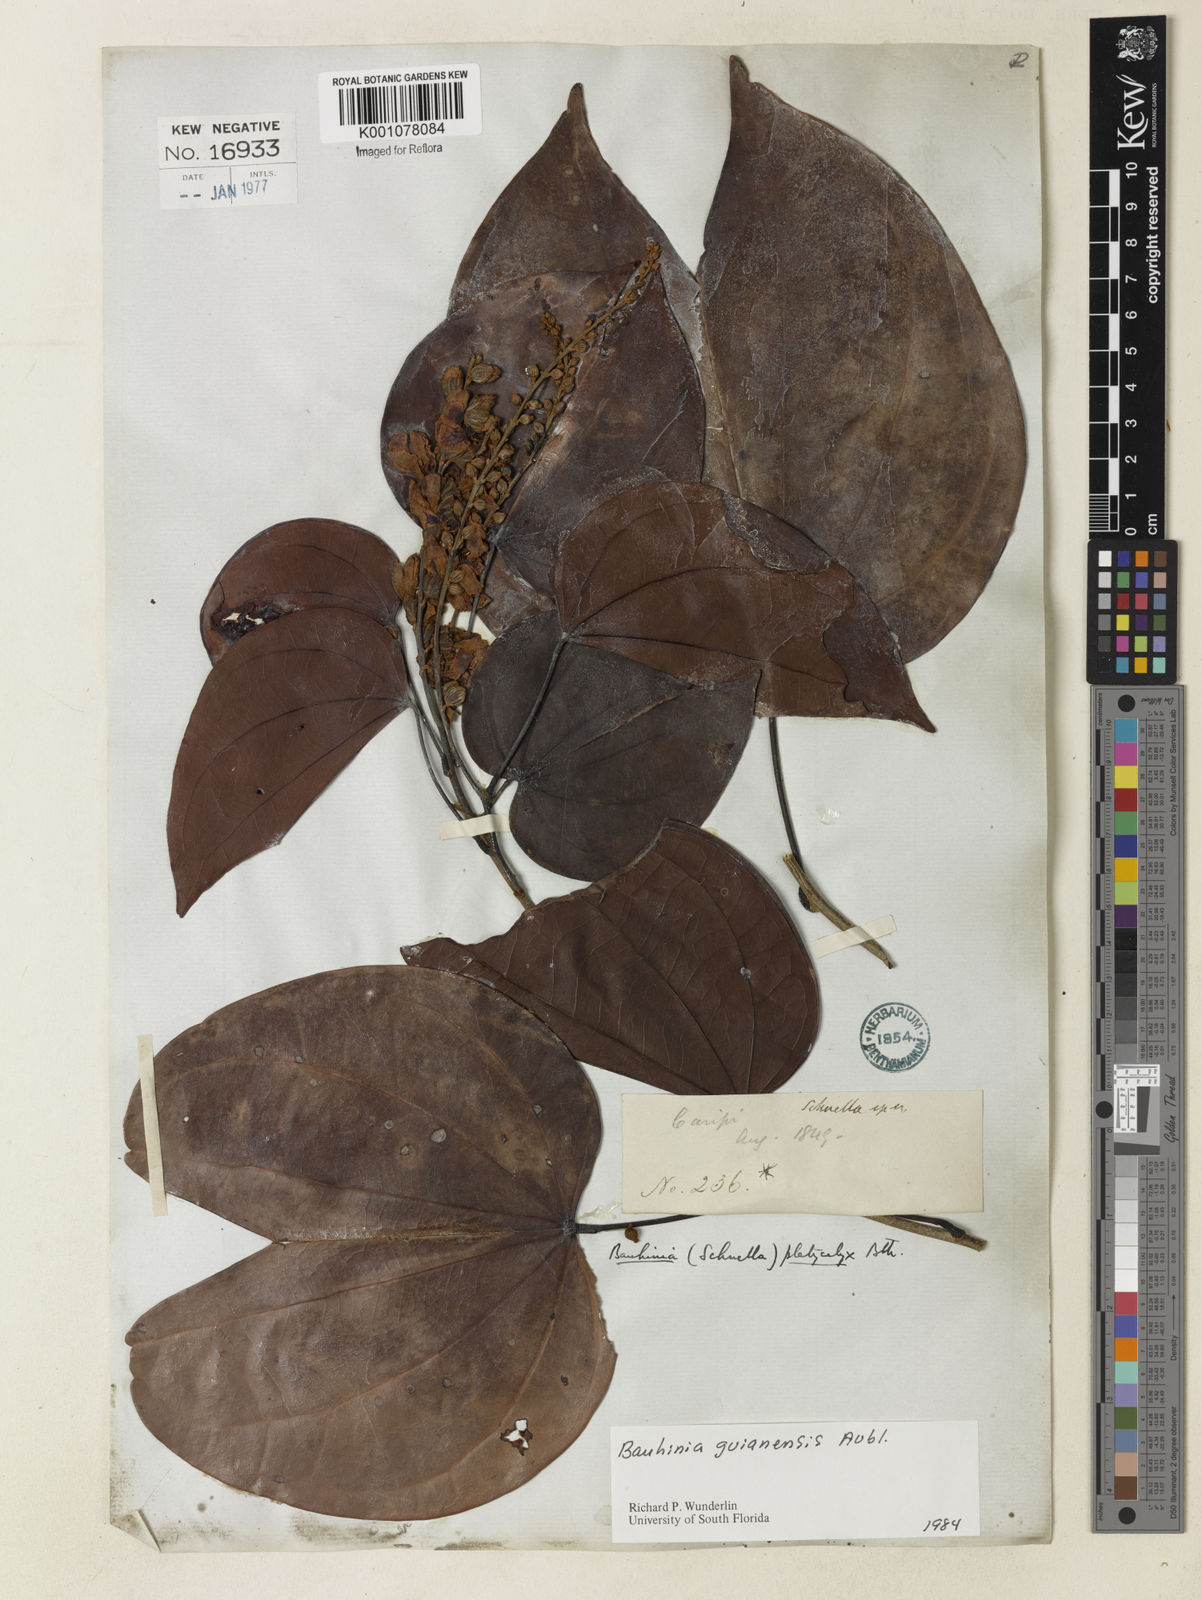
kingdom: Plantae
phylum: Tracheophyta
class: Magnoliopsida
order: Fabales
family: Fabaceae
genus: Schnella
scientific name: Schnella guianensis
